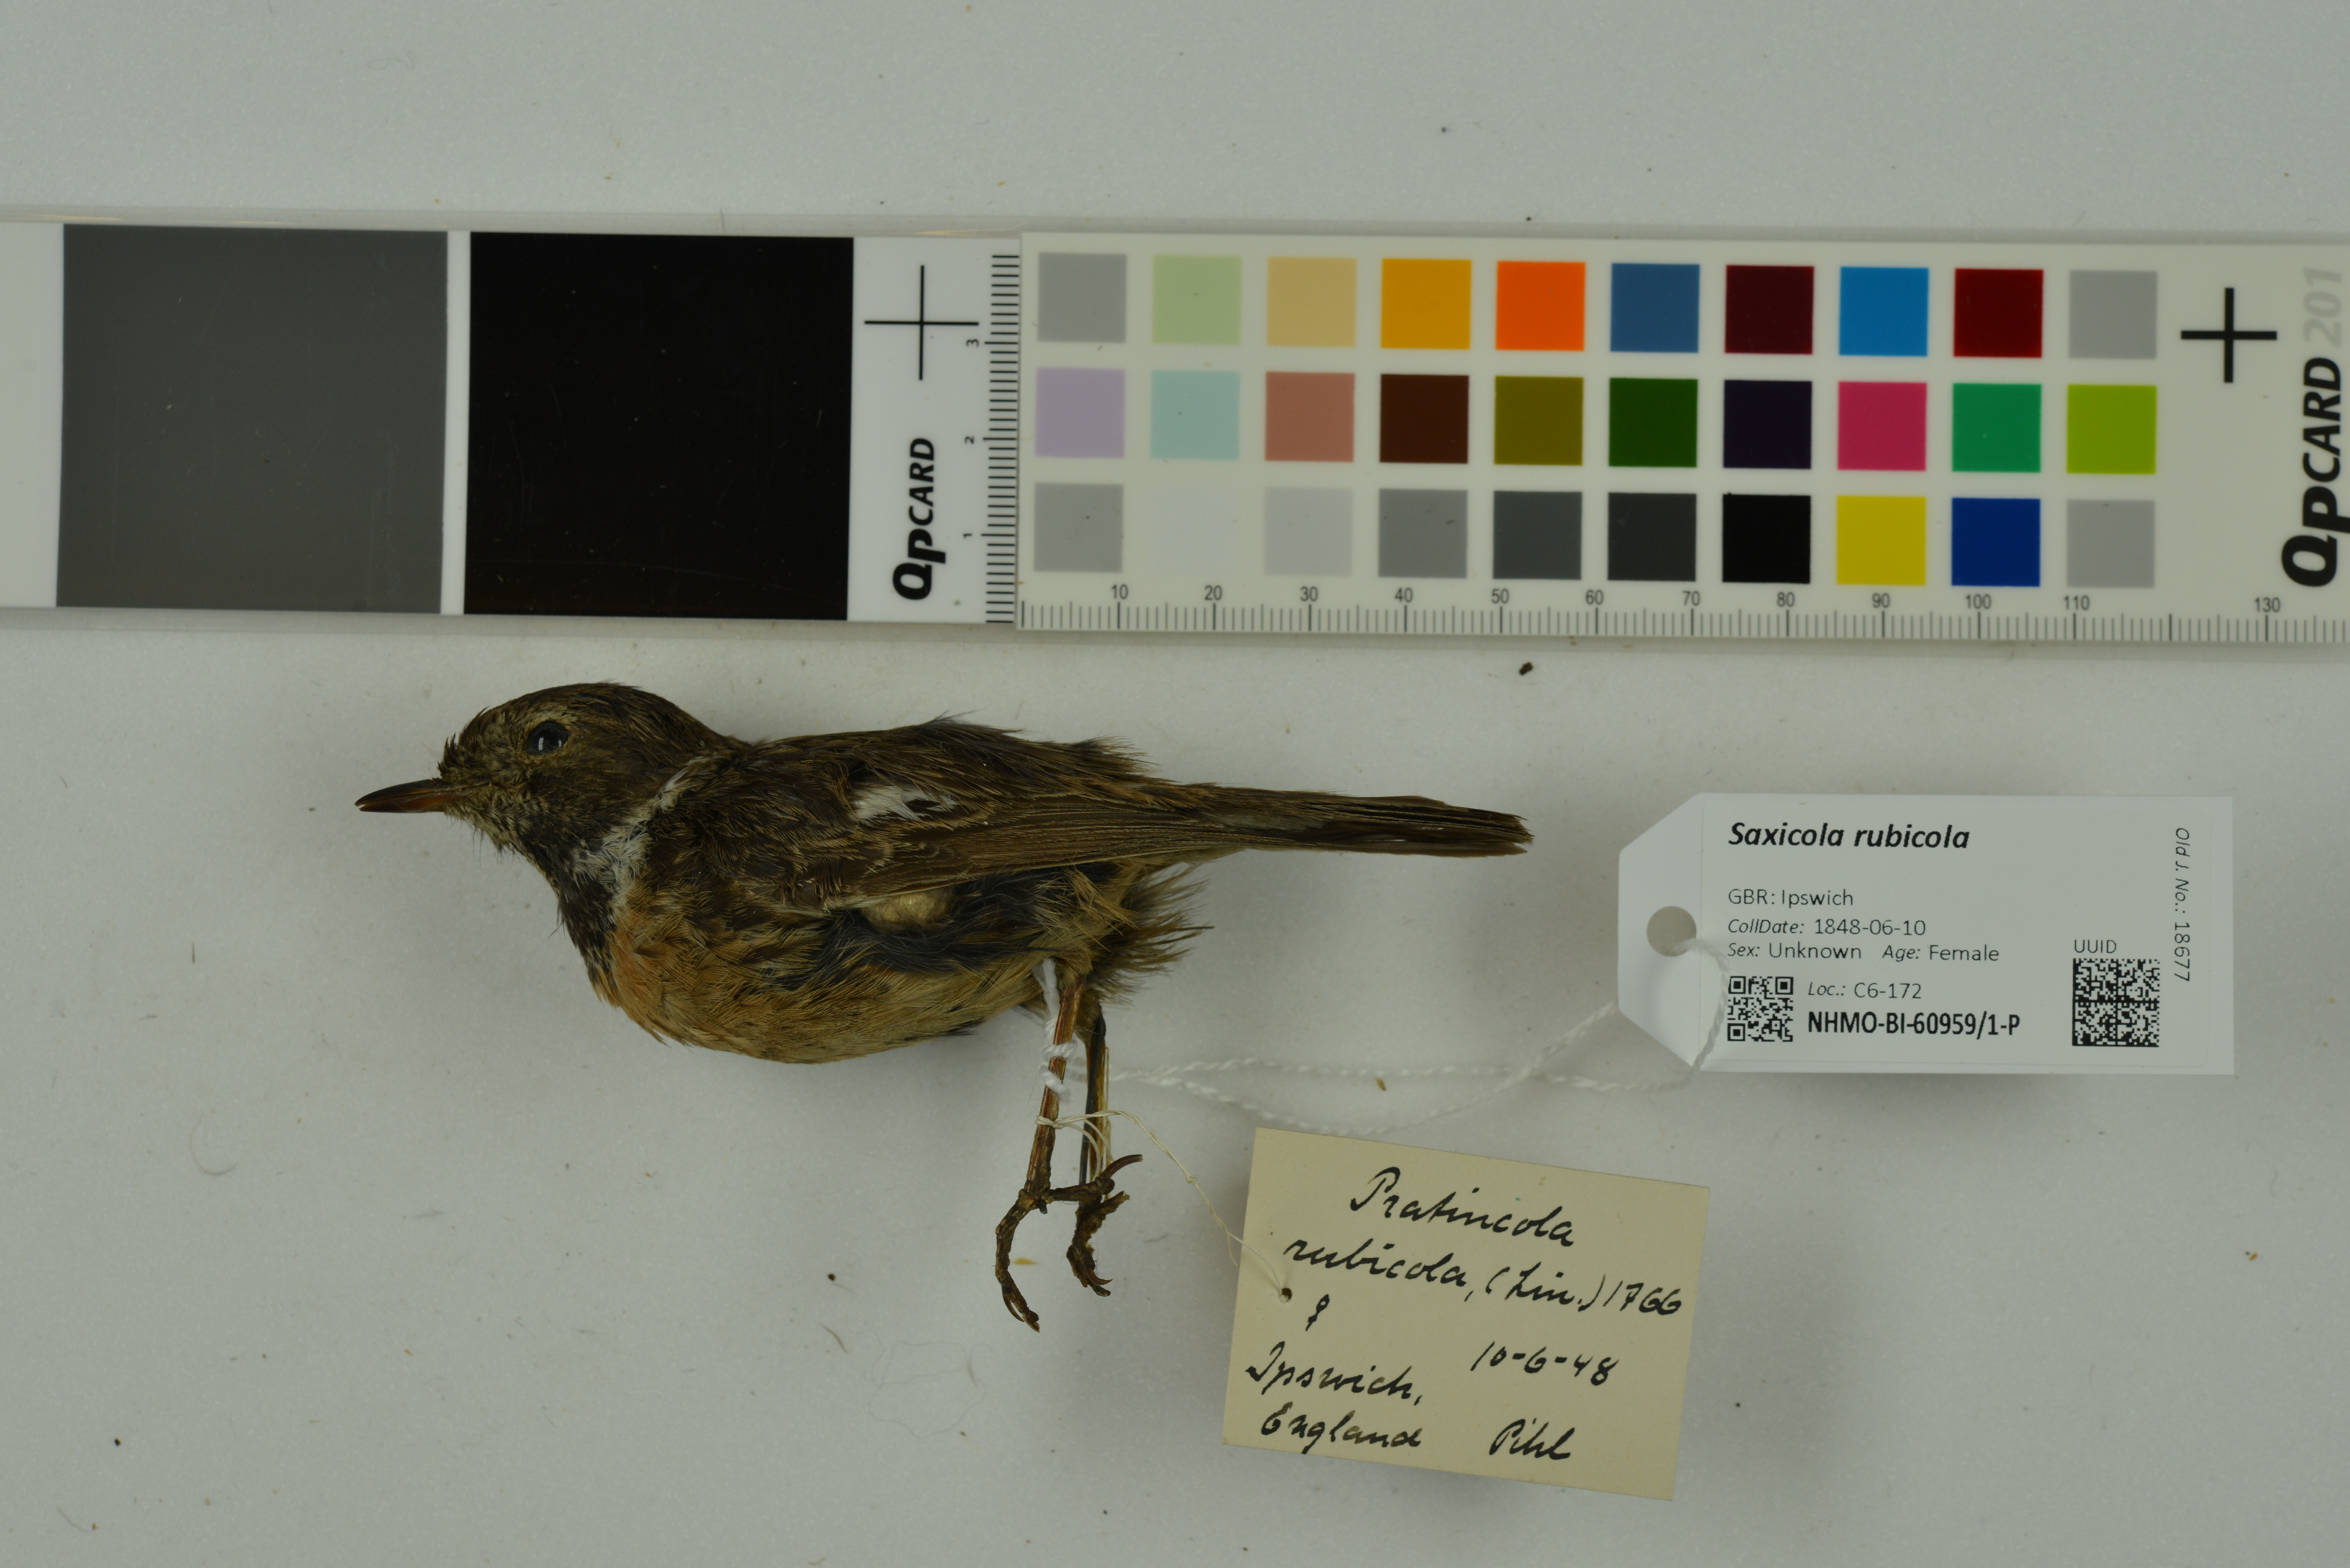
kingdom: Animalia
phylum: Chordata
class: Aves
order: Passeriformes
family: Muscicapidae
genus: Saxicola
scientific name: Saxicola rubicola
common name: European stonechat
